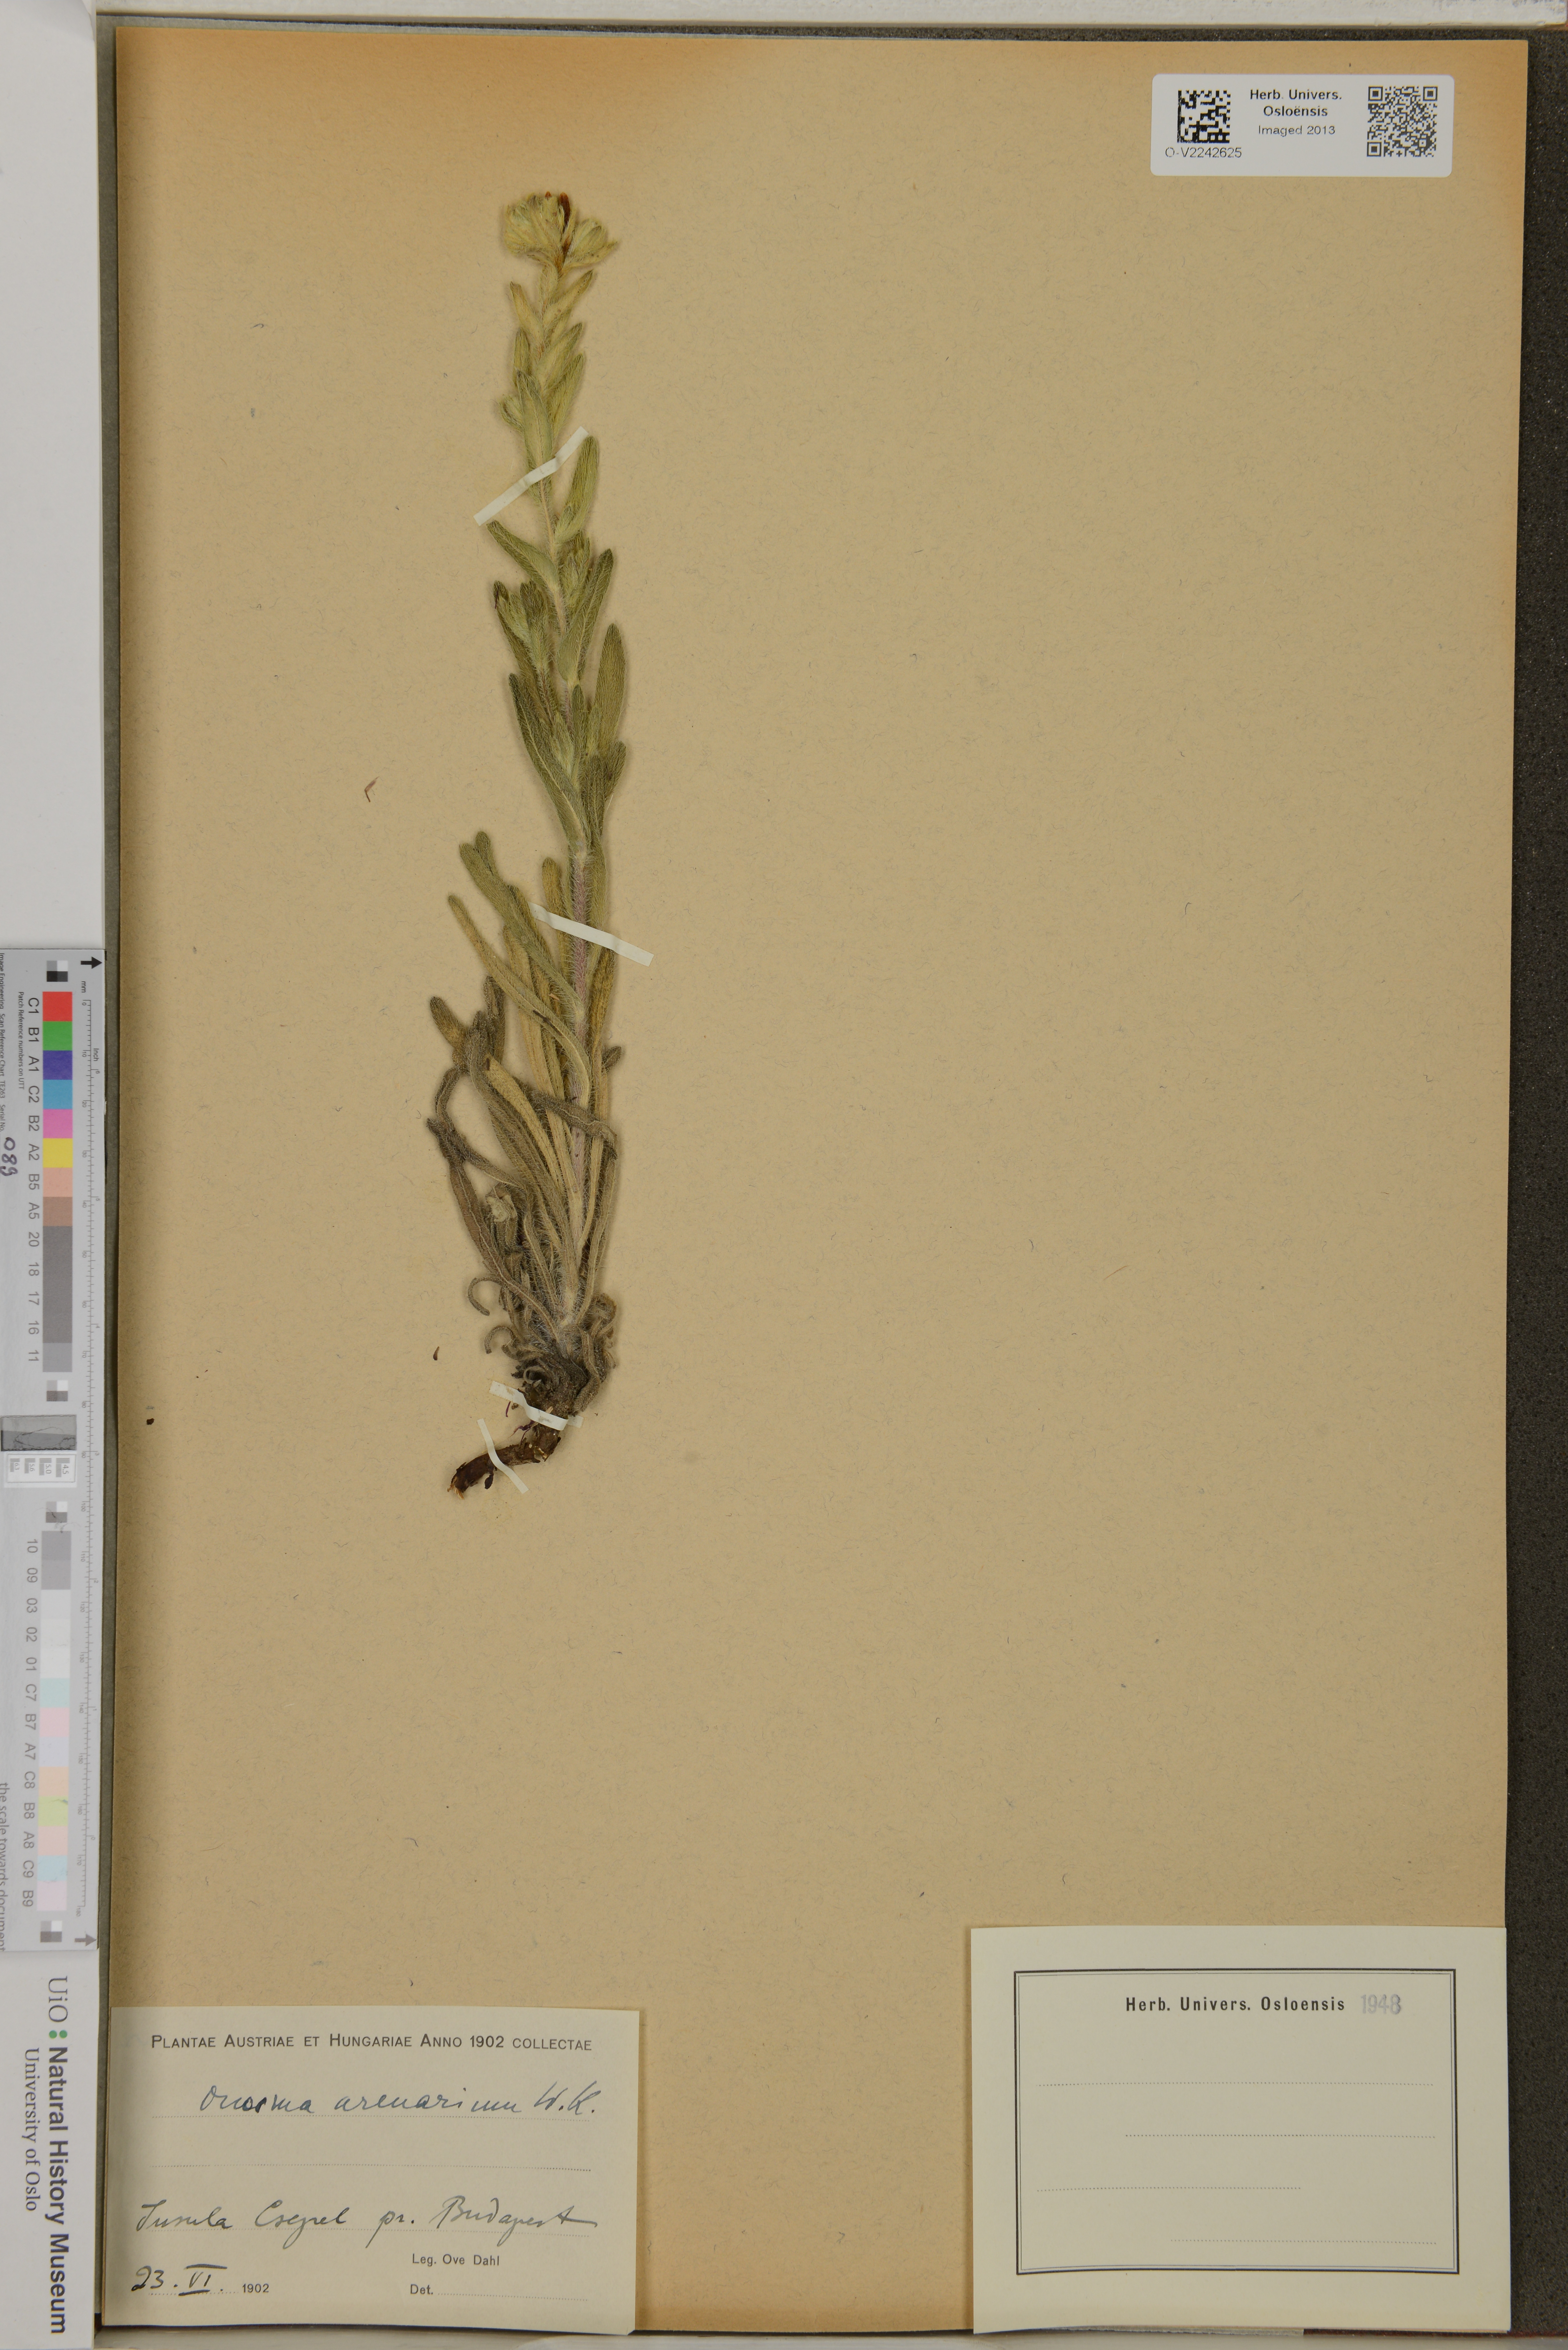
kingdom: Plantae
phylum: Tracheophyta
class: Magnoliopsida
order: Boraginales
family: Boraginaceae
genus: Onosma
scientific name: Onosma arenaria
